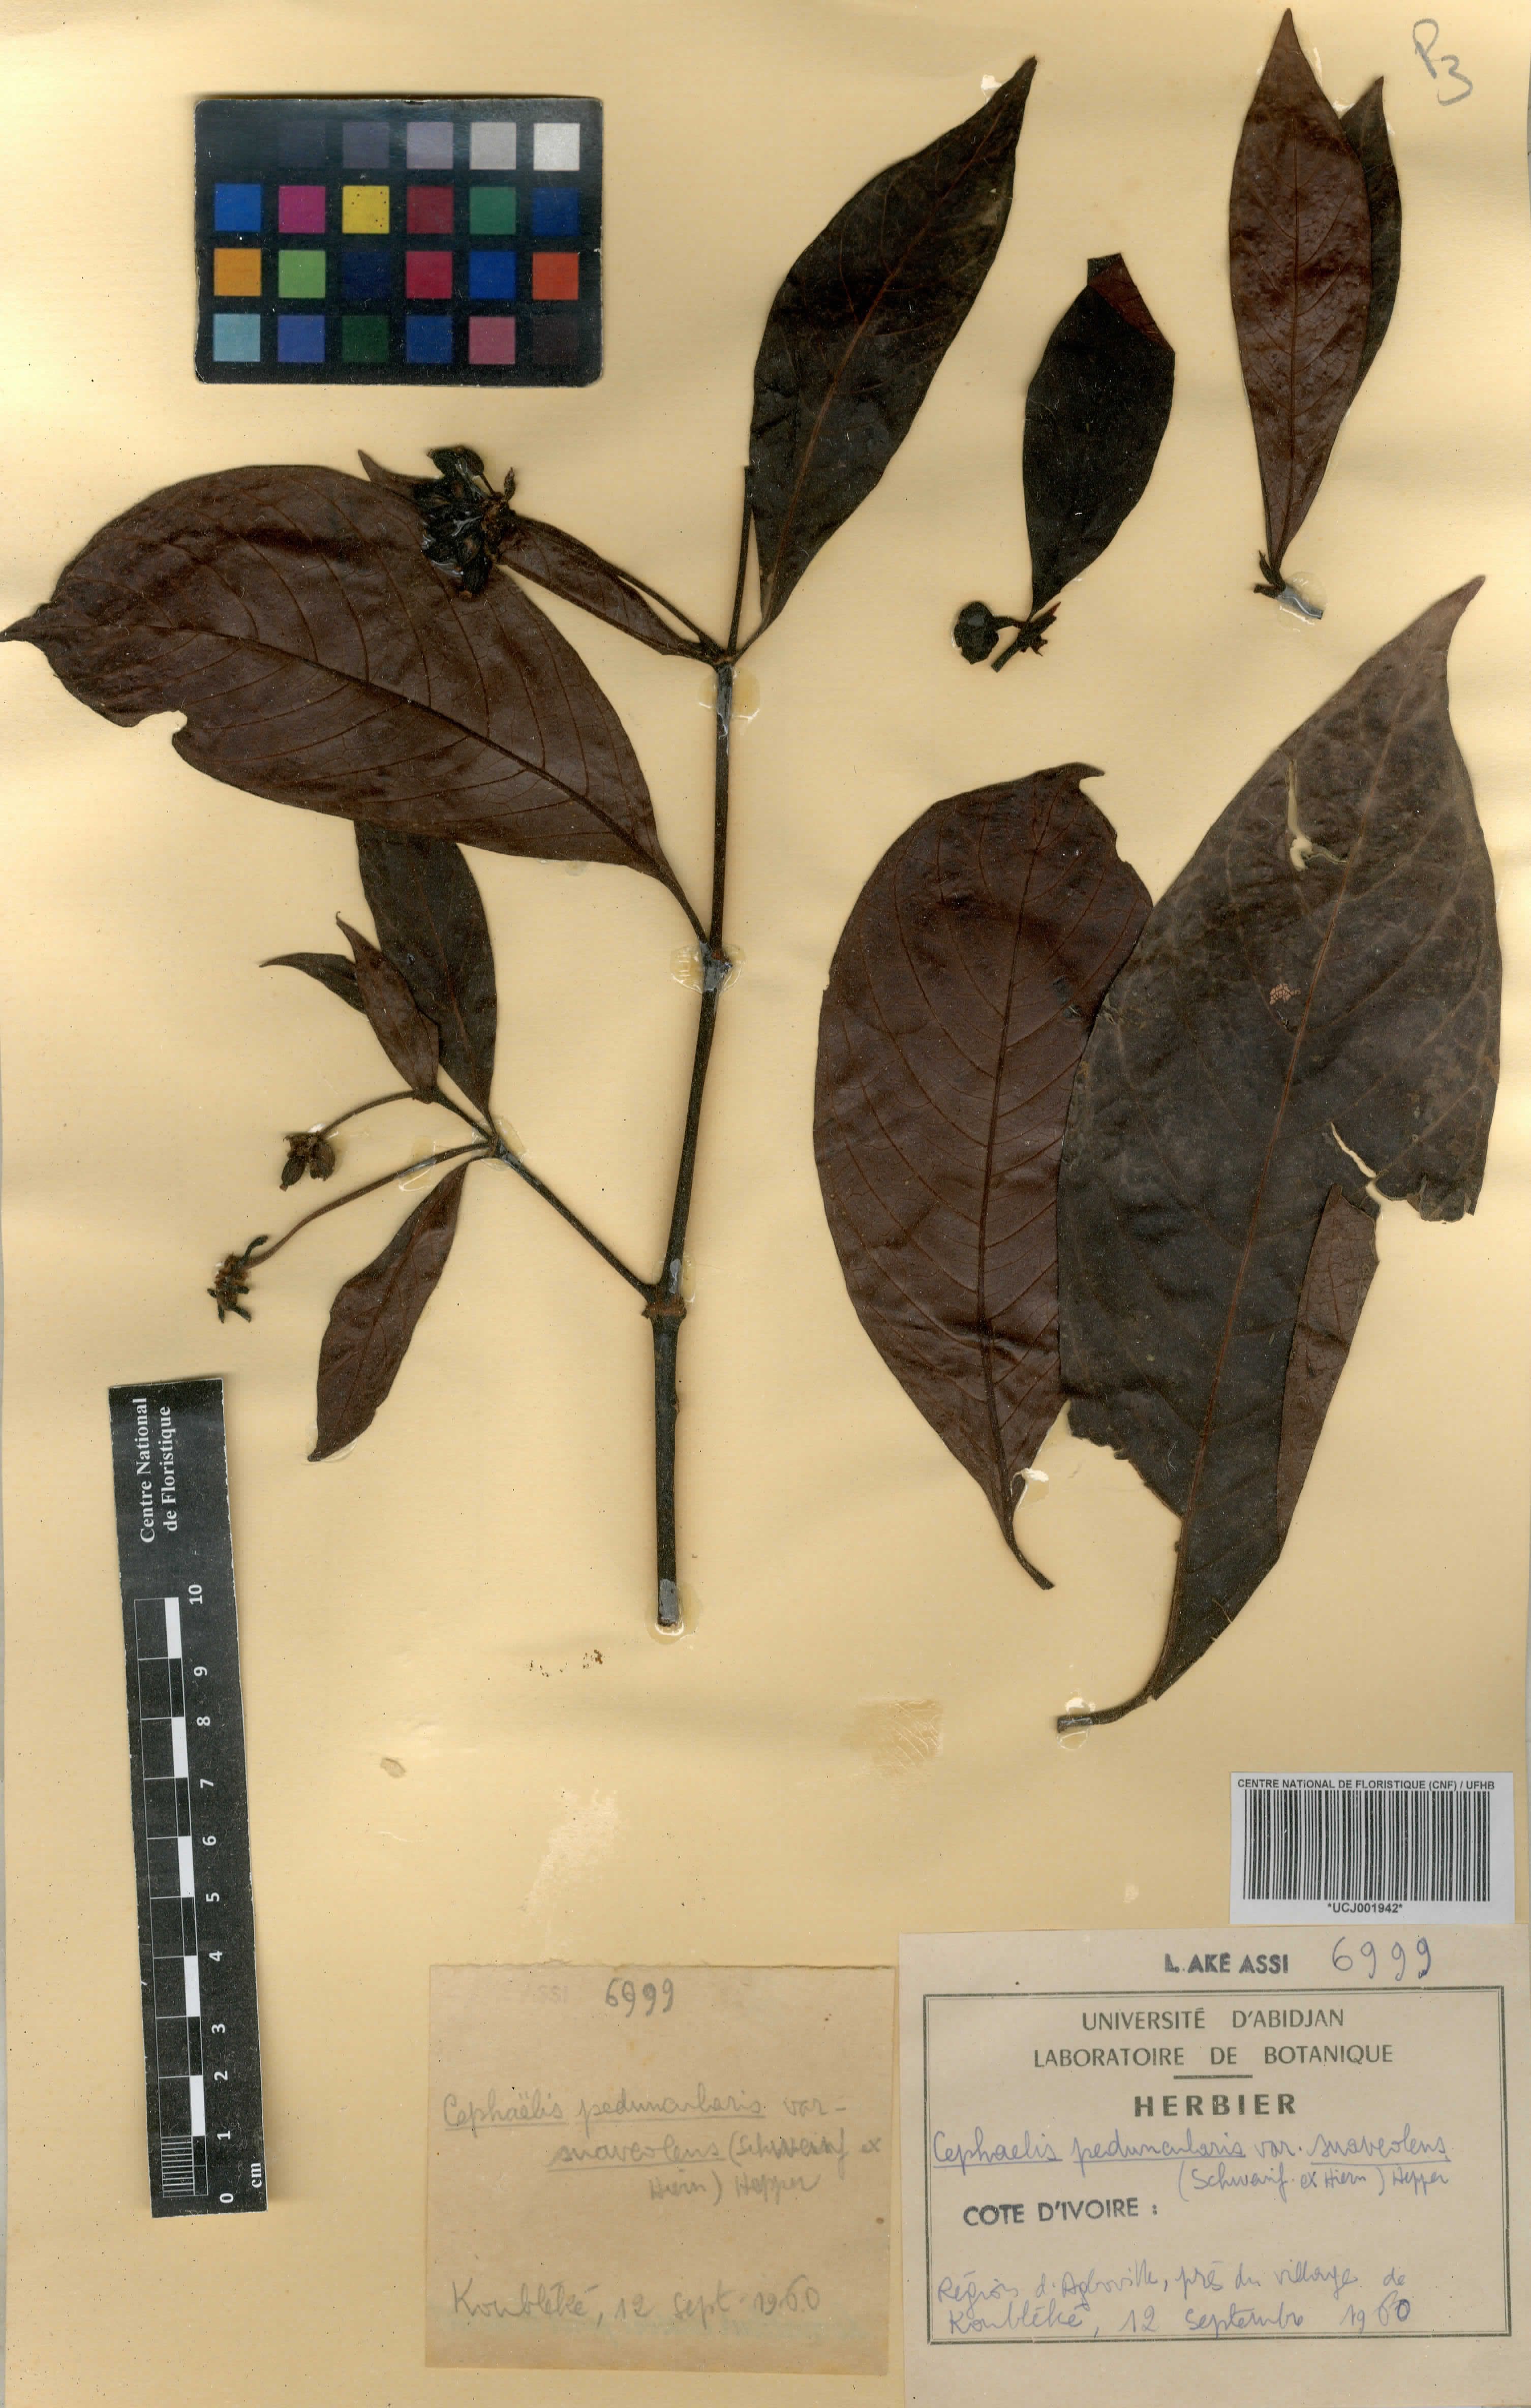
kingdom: Plantae
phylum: Tracheophyta
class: Magnoliopsida
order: Gentianales
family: Rubiaceae
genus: Psychotria
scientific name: Psychotria peduncularis
